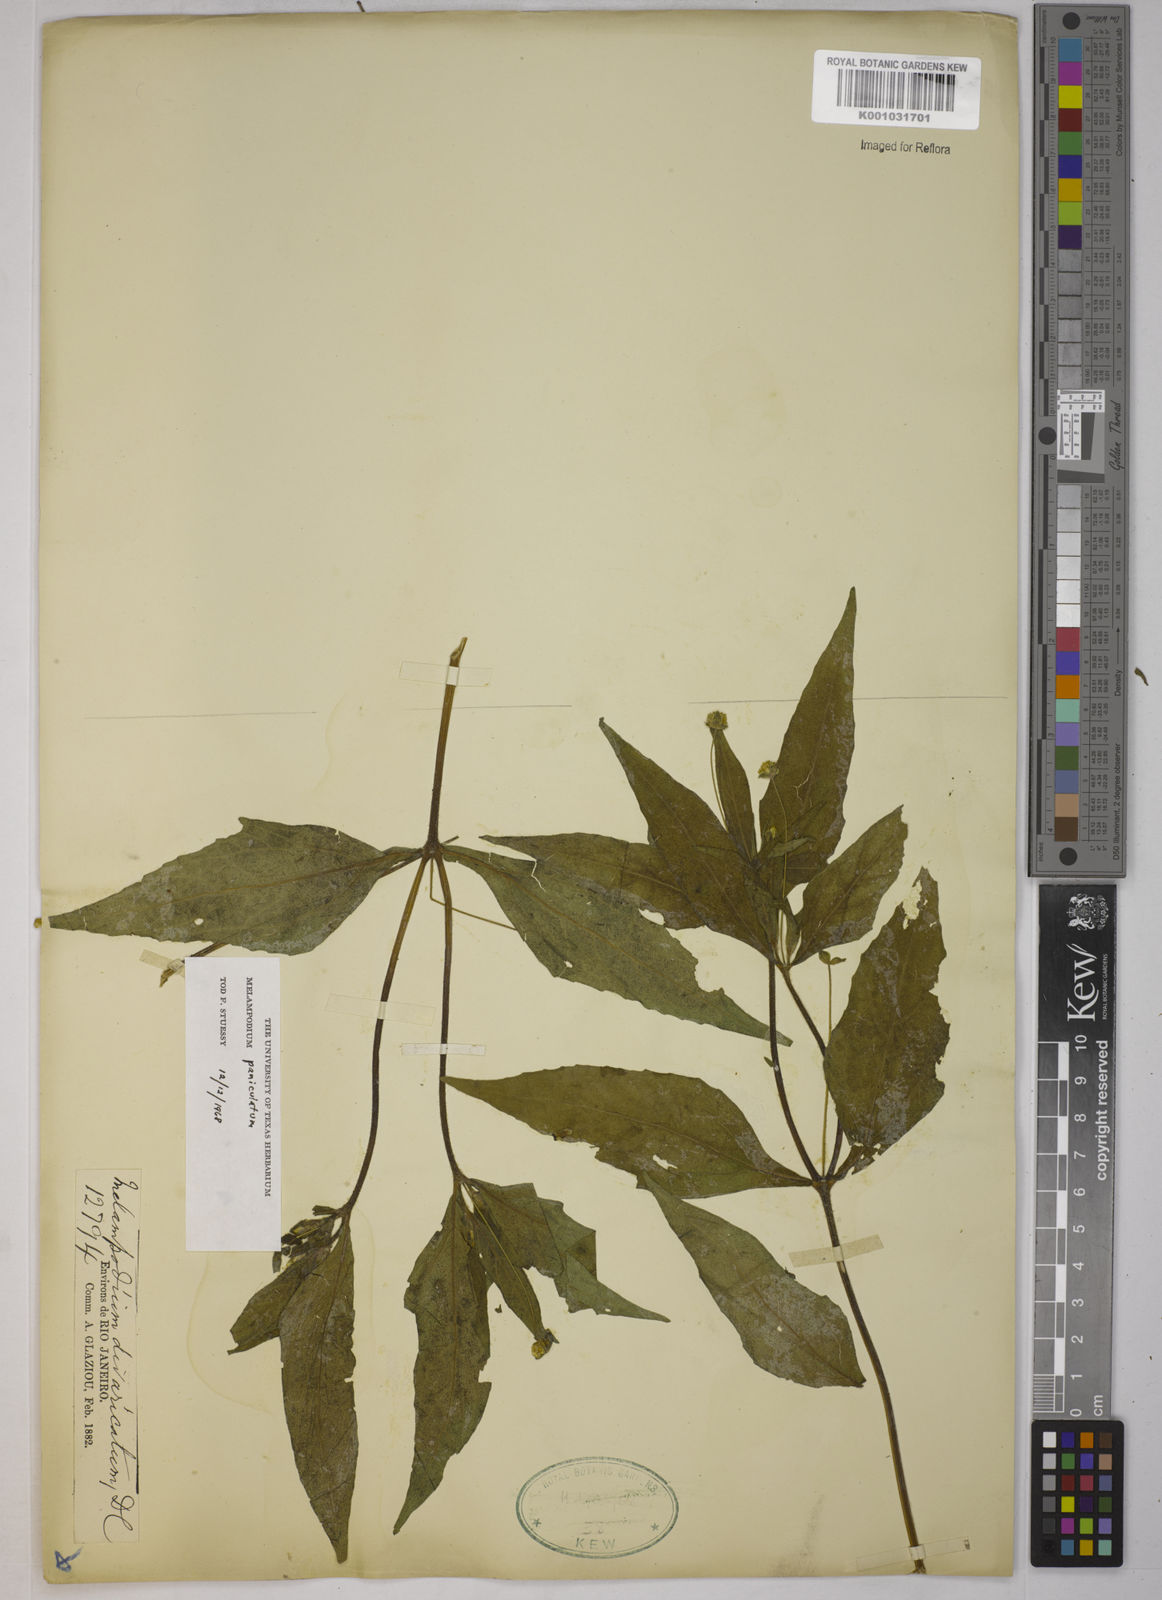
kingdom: Plantae
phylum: Tracheophyta
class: Magnoliopsida
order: Asterales
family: Asteraceae
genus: Melampodium
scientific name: Melampodium paniculatum
